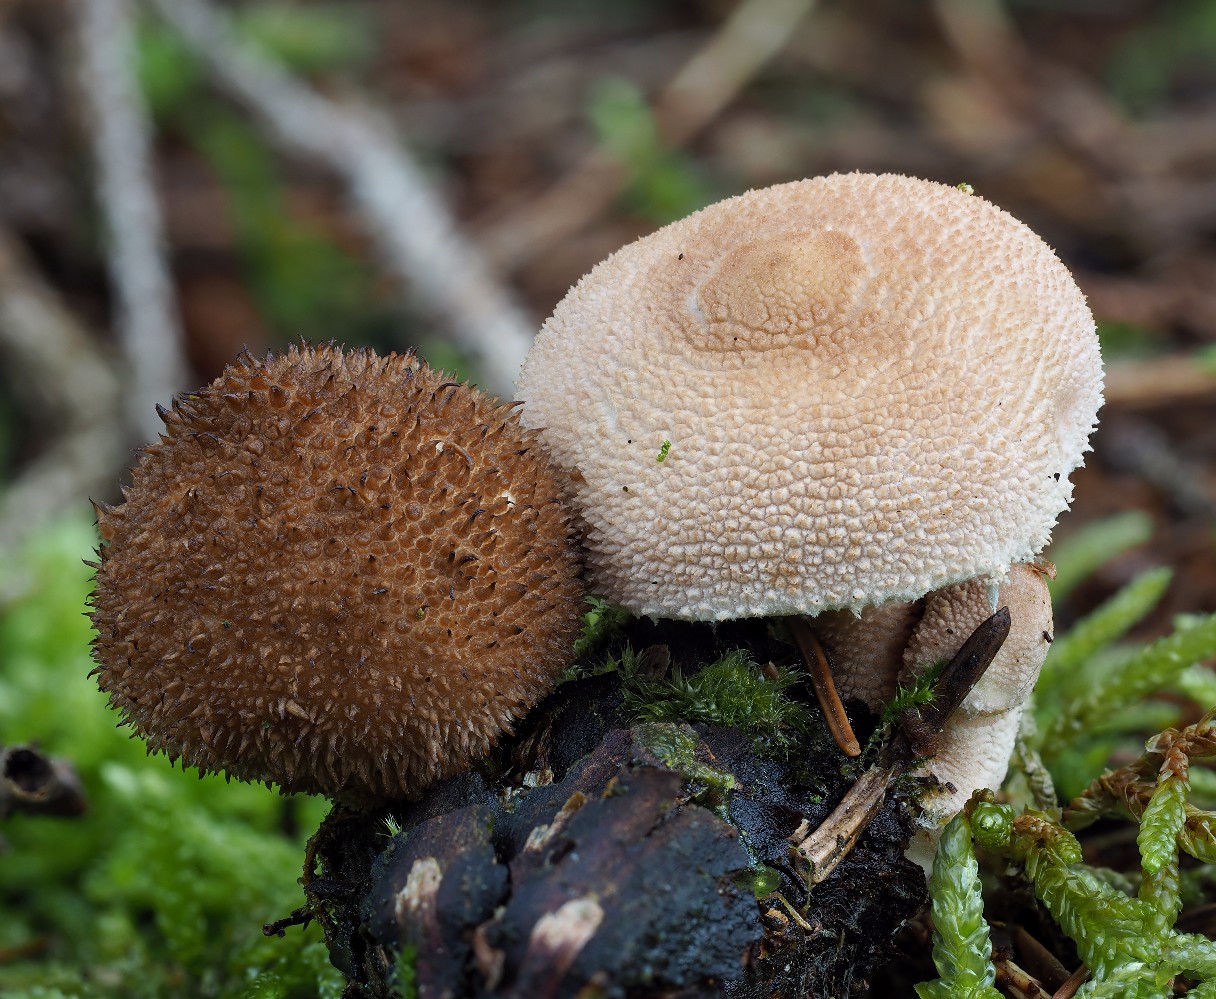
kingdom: Fungi
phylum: Basidiomycota
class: Agaricomycetes
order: Agaricales
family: Lycoperdaceae
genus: Lycoperdon
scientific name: Lycoperdon nigrescens
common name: sortagtig støvbold
